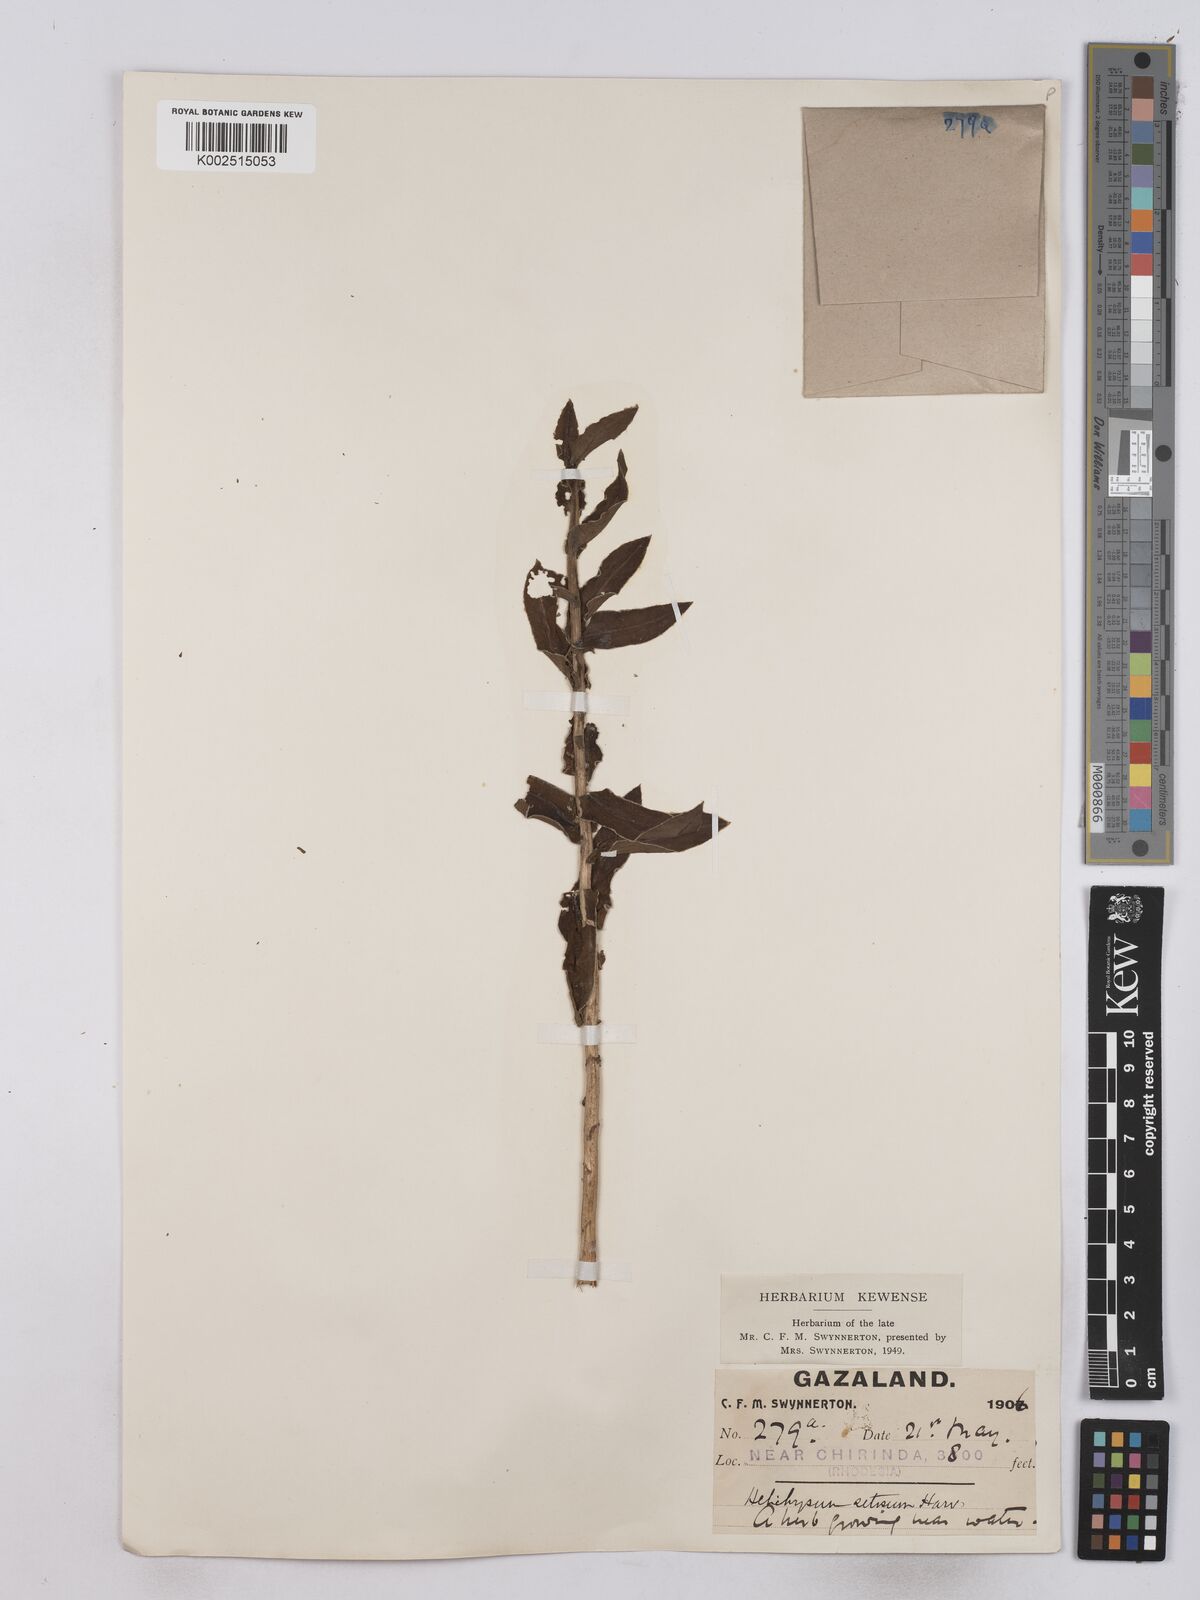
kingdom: Plantae
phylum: Tracheophyta
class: Magnoliopsida
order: Asterales
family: Asteraceae
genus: Helichrysum
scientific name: Helichrysum setosum
